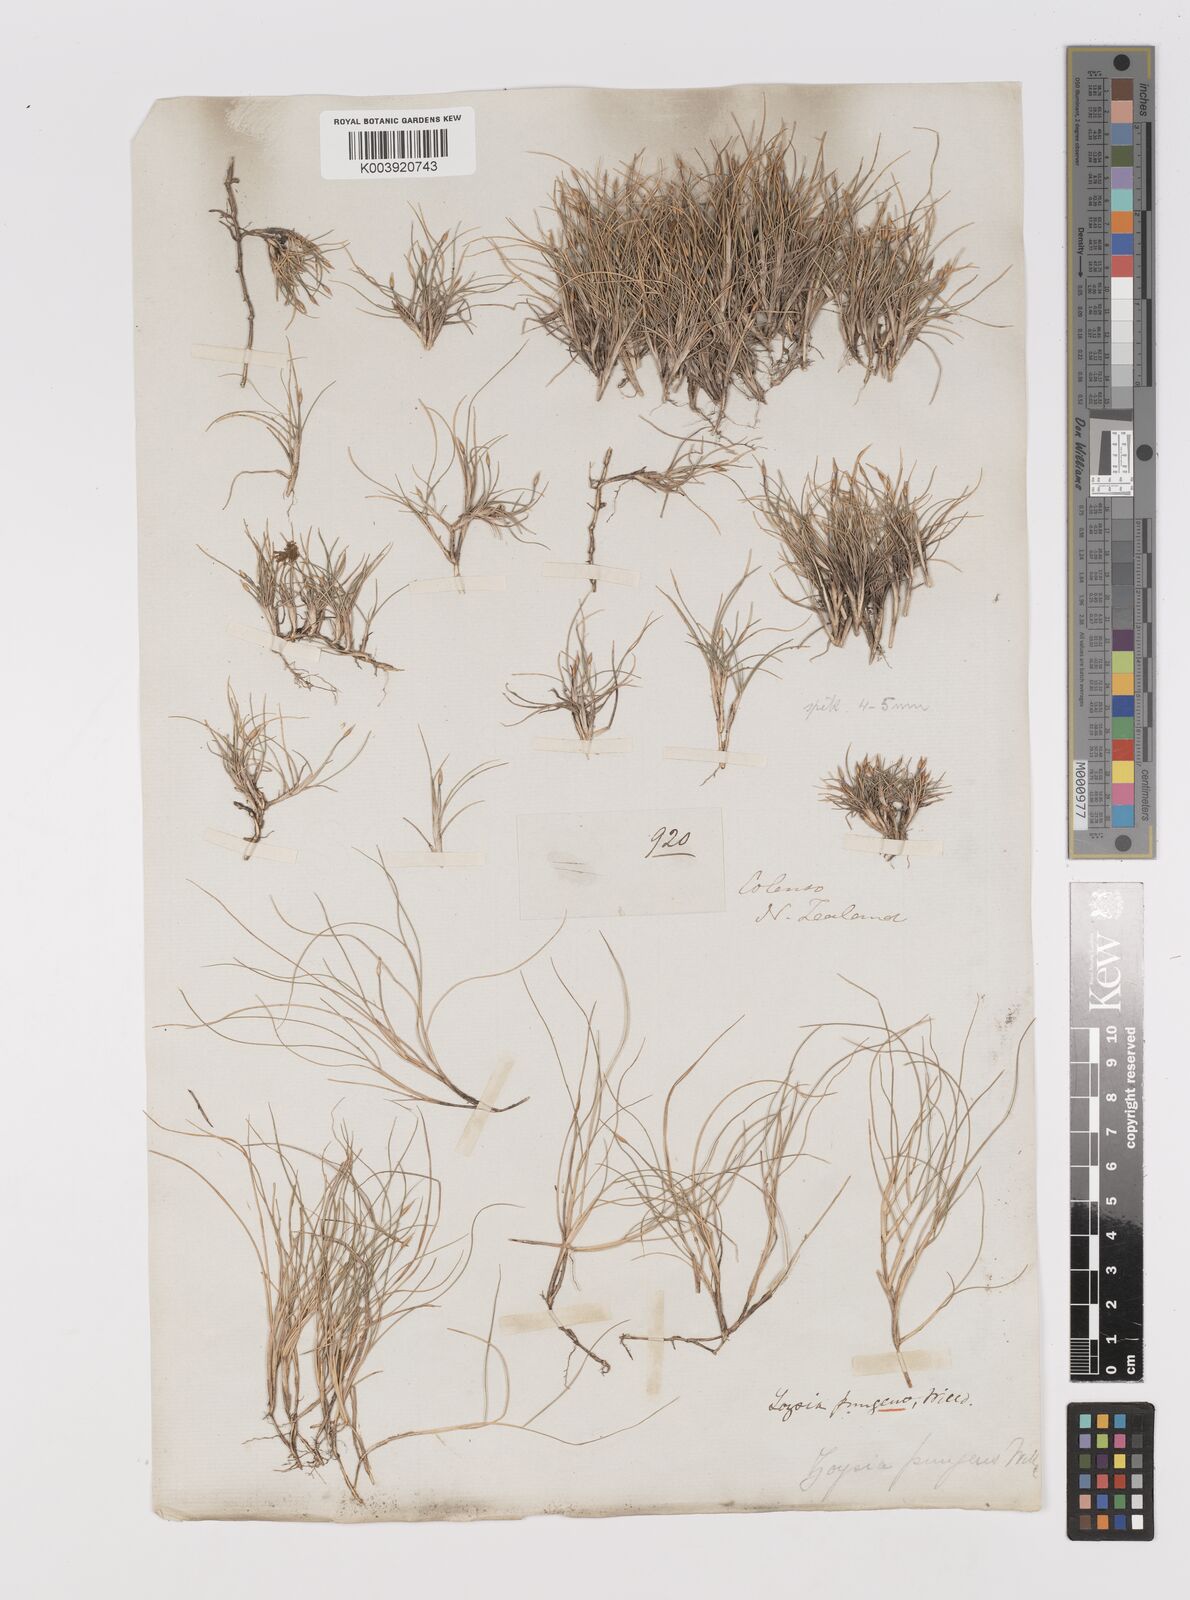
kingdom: Plantae
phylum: Tracheophyta
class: Liliopsida
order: Poales
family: Poaceae
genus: Zoysia
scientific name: Zoysia minima
